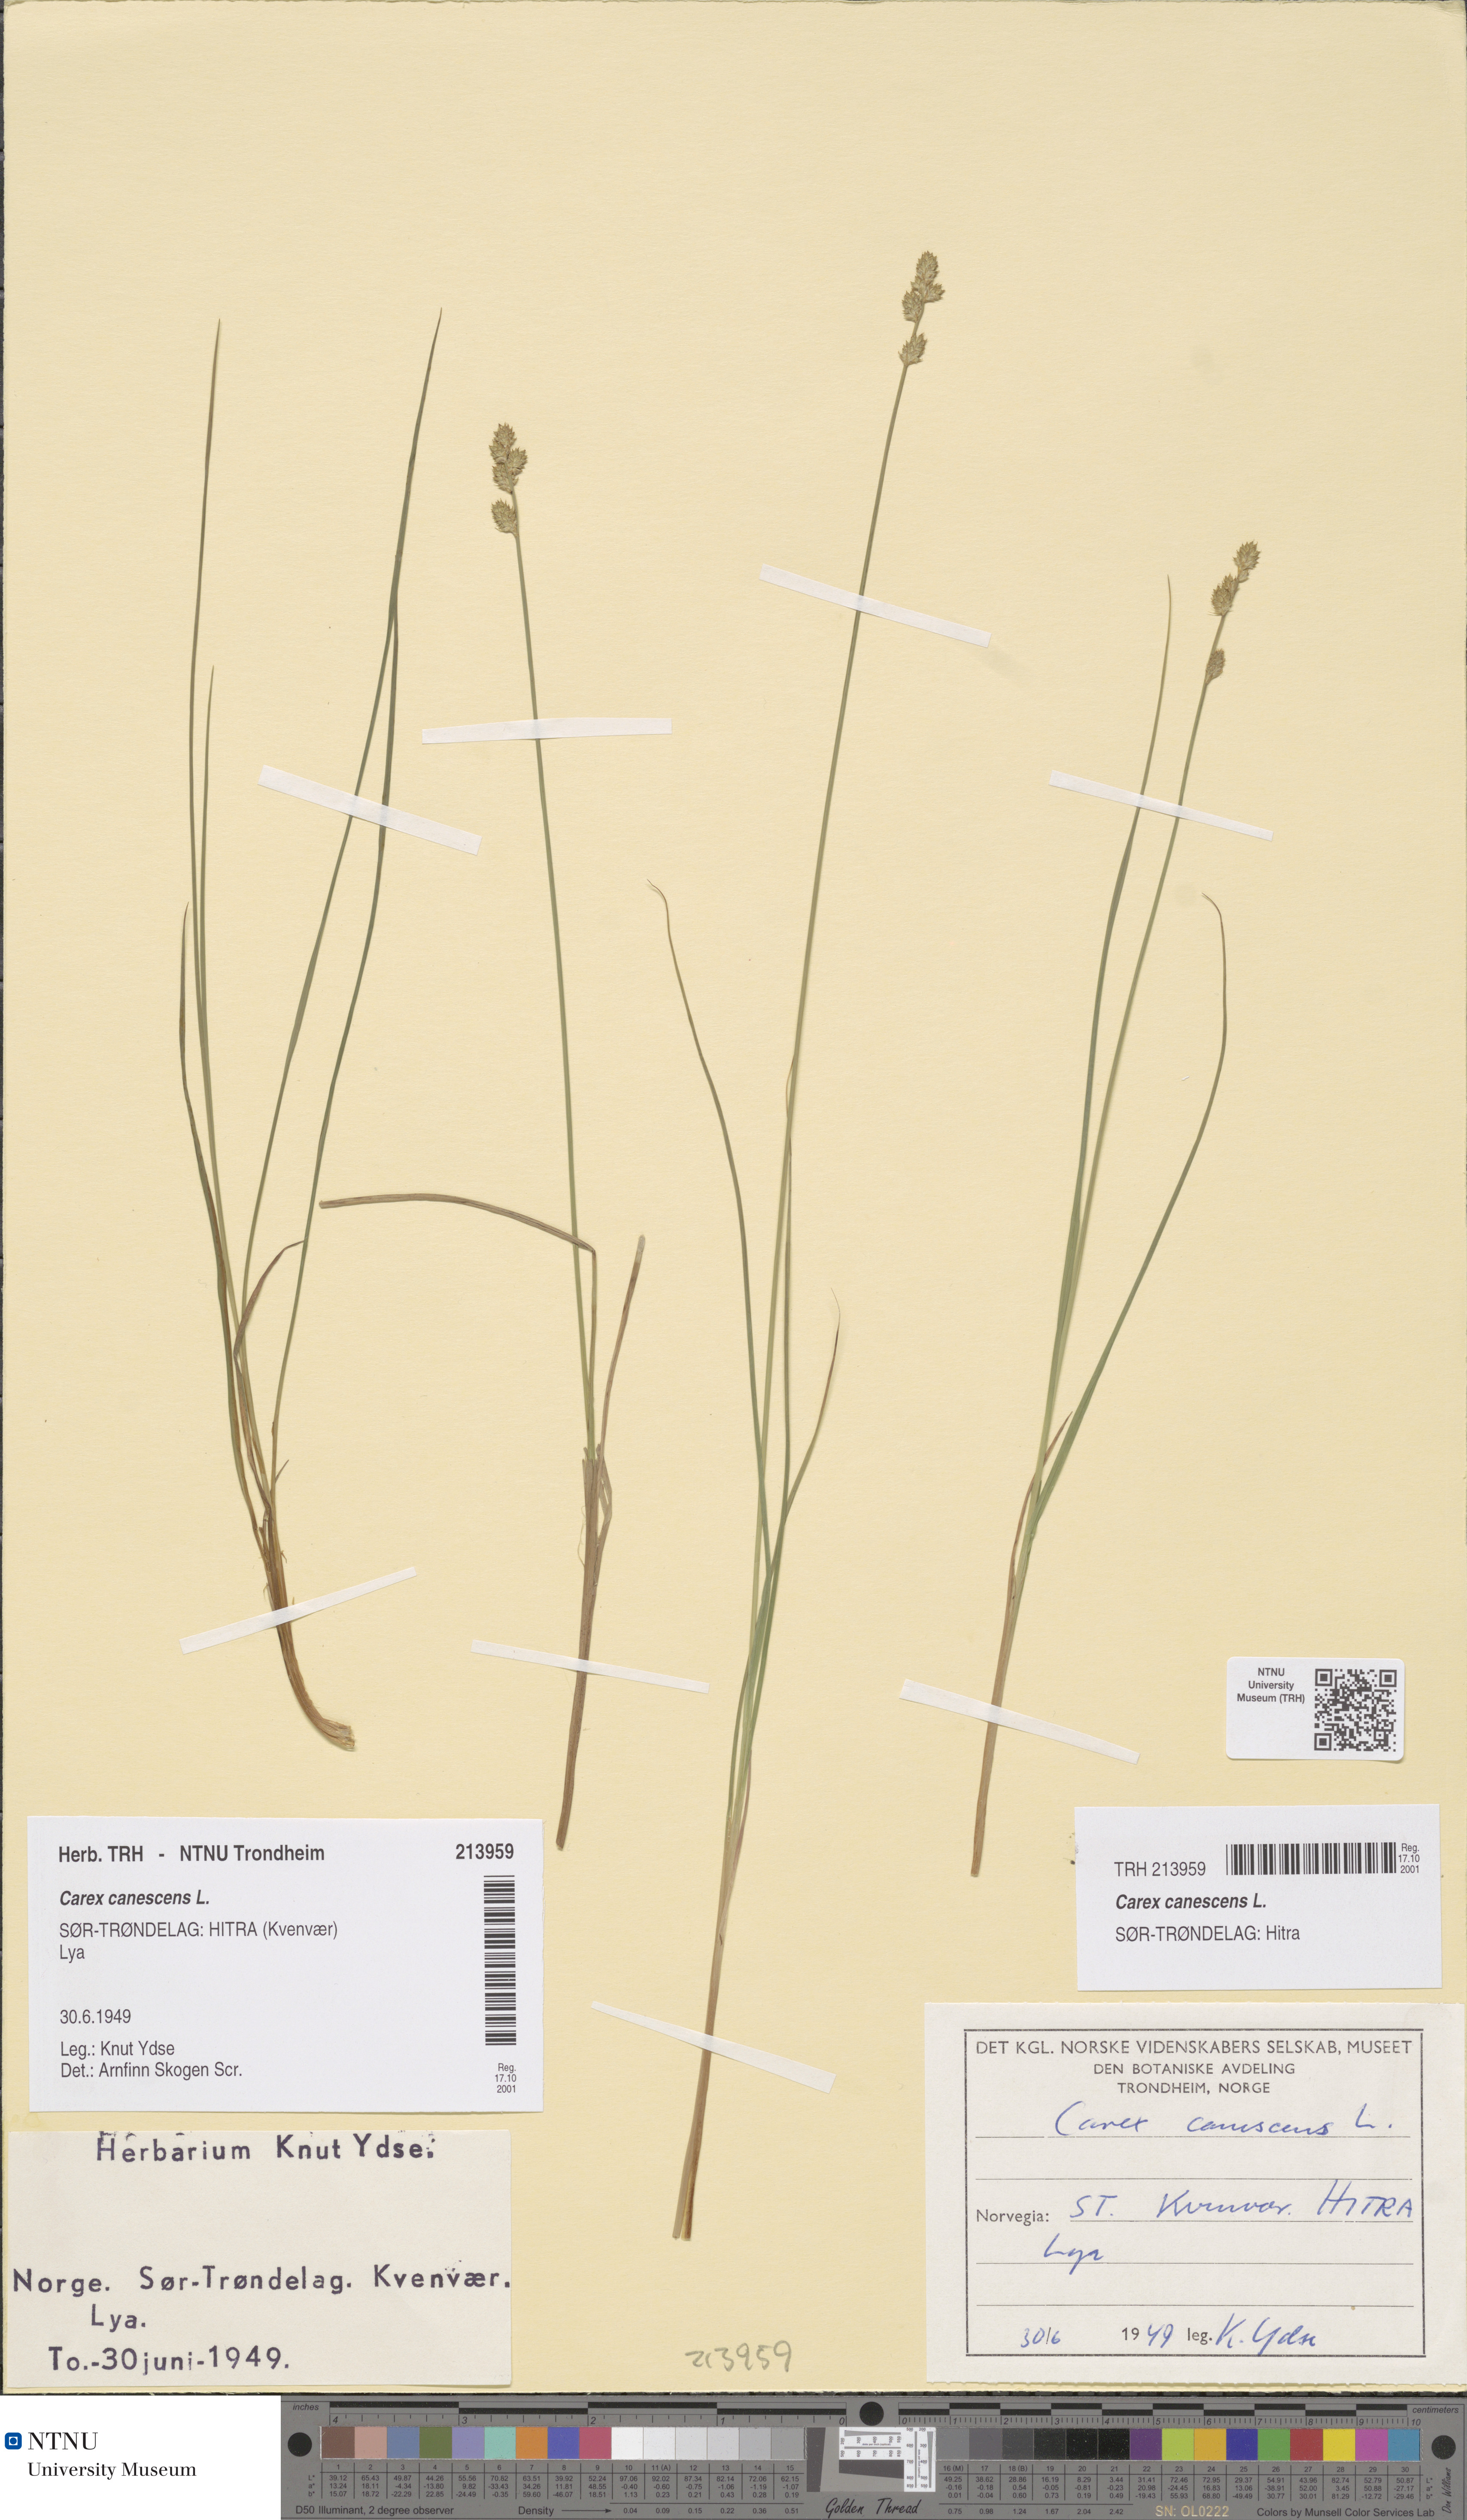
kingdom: Plantae
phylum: Tracheophyta
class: Liliopsida
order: Poales
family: Cyperaceae
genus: Carex
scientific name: Carex canescens
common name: White sedge
